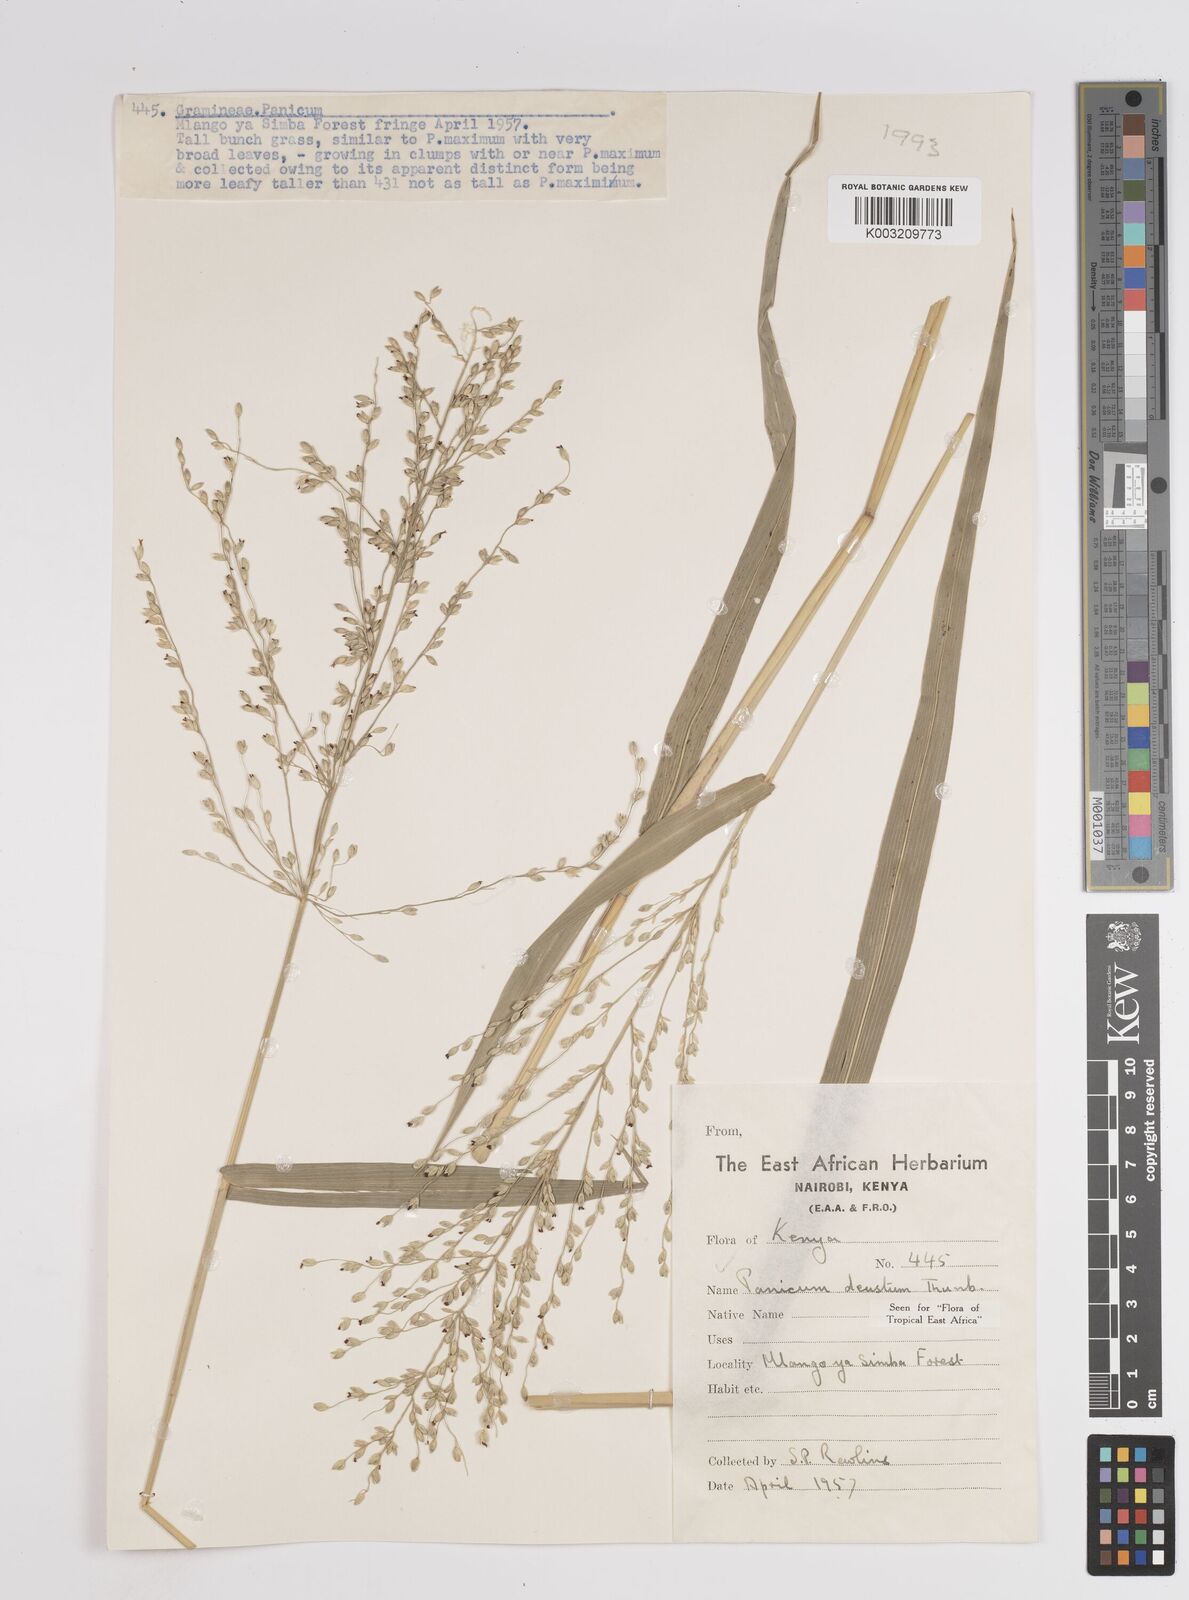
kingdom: Plantae
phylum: Tracheophyta
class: Liliopsida
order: Poales
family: Poaceae
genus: Panicum
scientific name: Panicum
